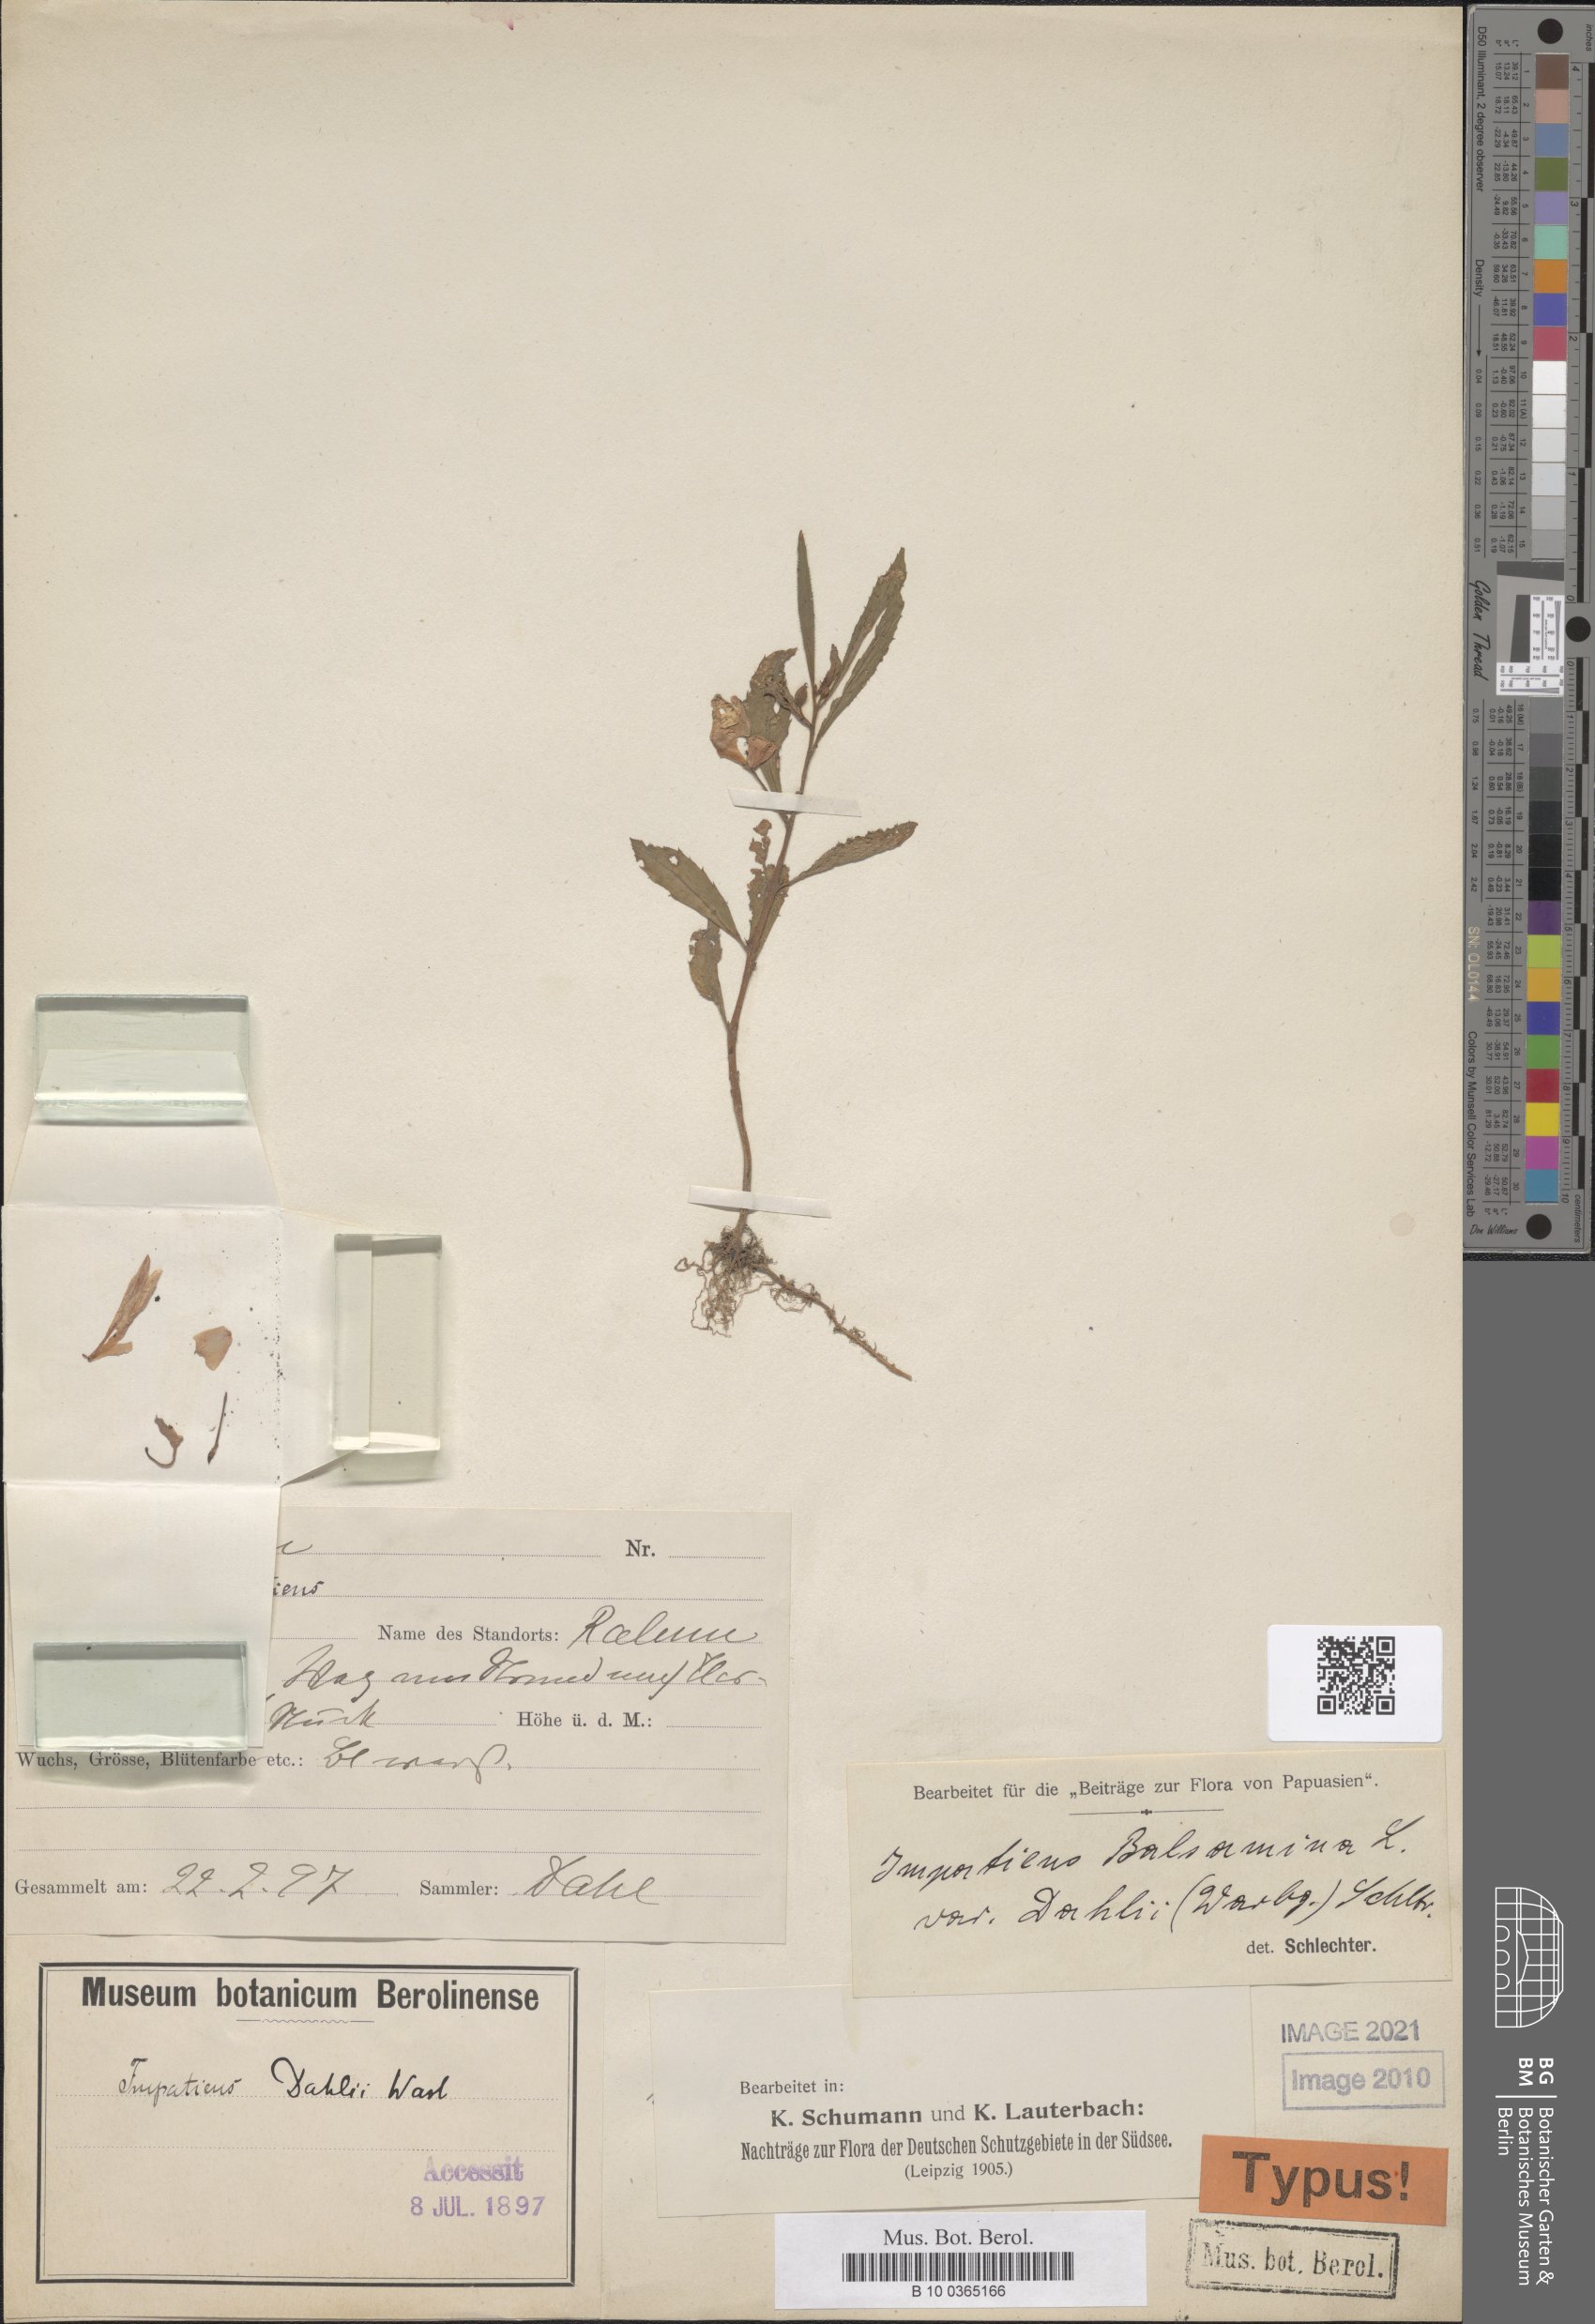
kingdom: Plantae
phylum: Tracheophyta
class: Magnoliopsida
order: Ericales
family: Balsaminaceae
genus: Impatiens
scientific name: Impatiens balsamina
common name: Balsam
